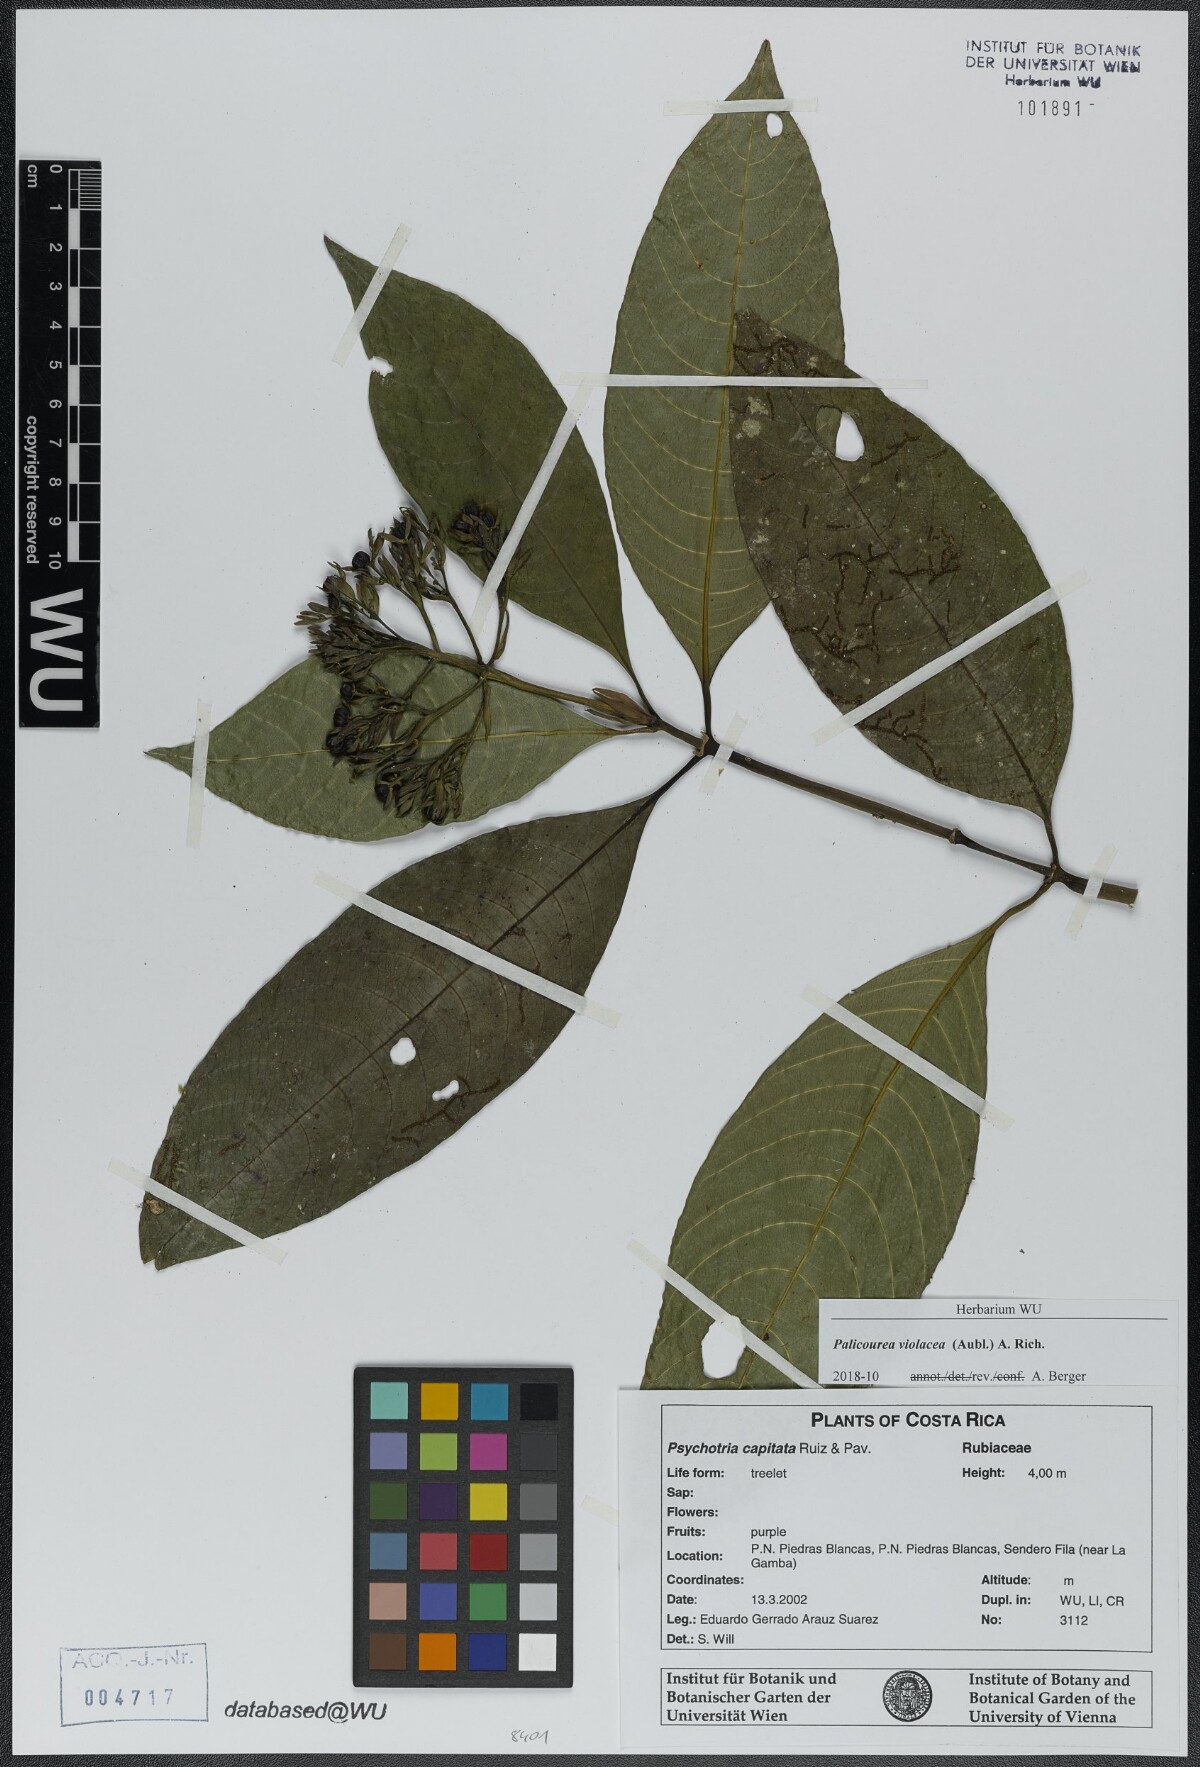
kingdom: Plantae
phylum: Tracheophyta
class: Magnoliopsida
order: Gentianales
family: Rubiaceae
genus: Palicourea
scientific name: Palicourea violacea
